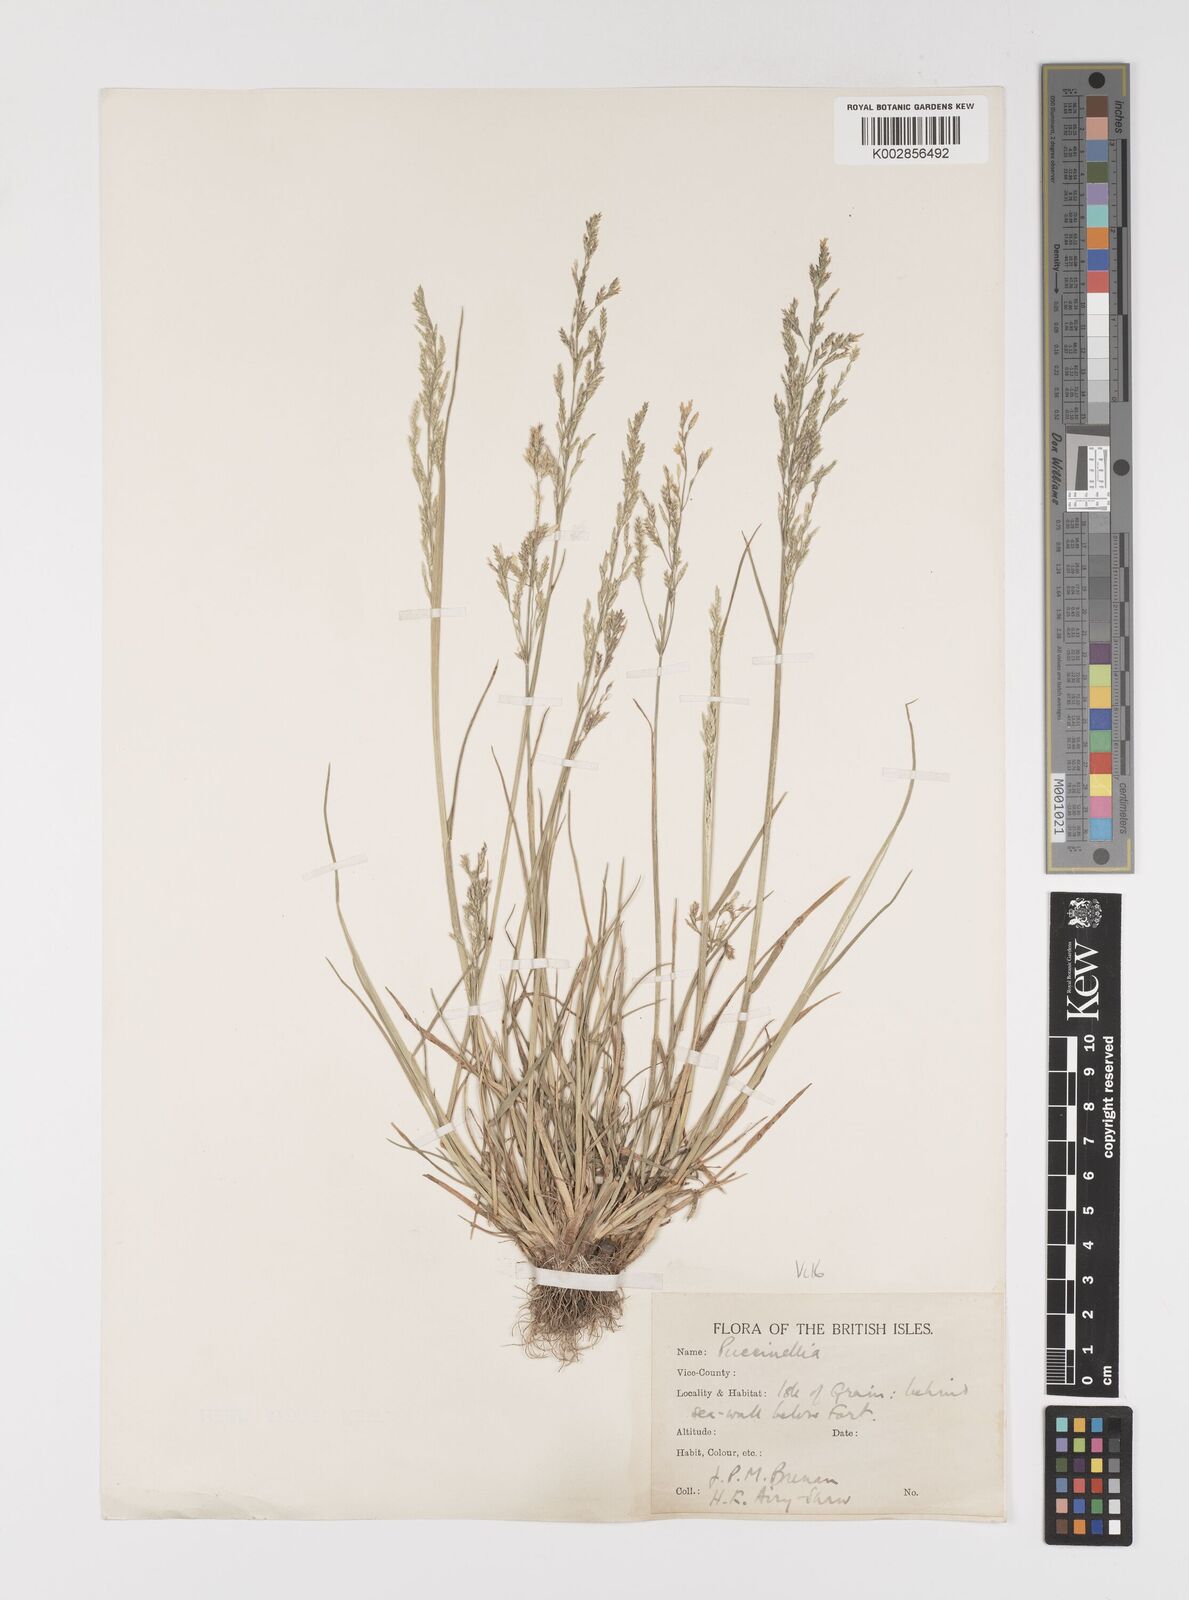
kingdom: Plantae
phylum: Tracheophyta
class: Liliopsida
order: Poales
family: Poaceae
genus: Puccinellia
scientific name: Puccinellia distans
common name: Weeping alkaligrass
